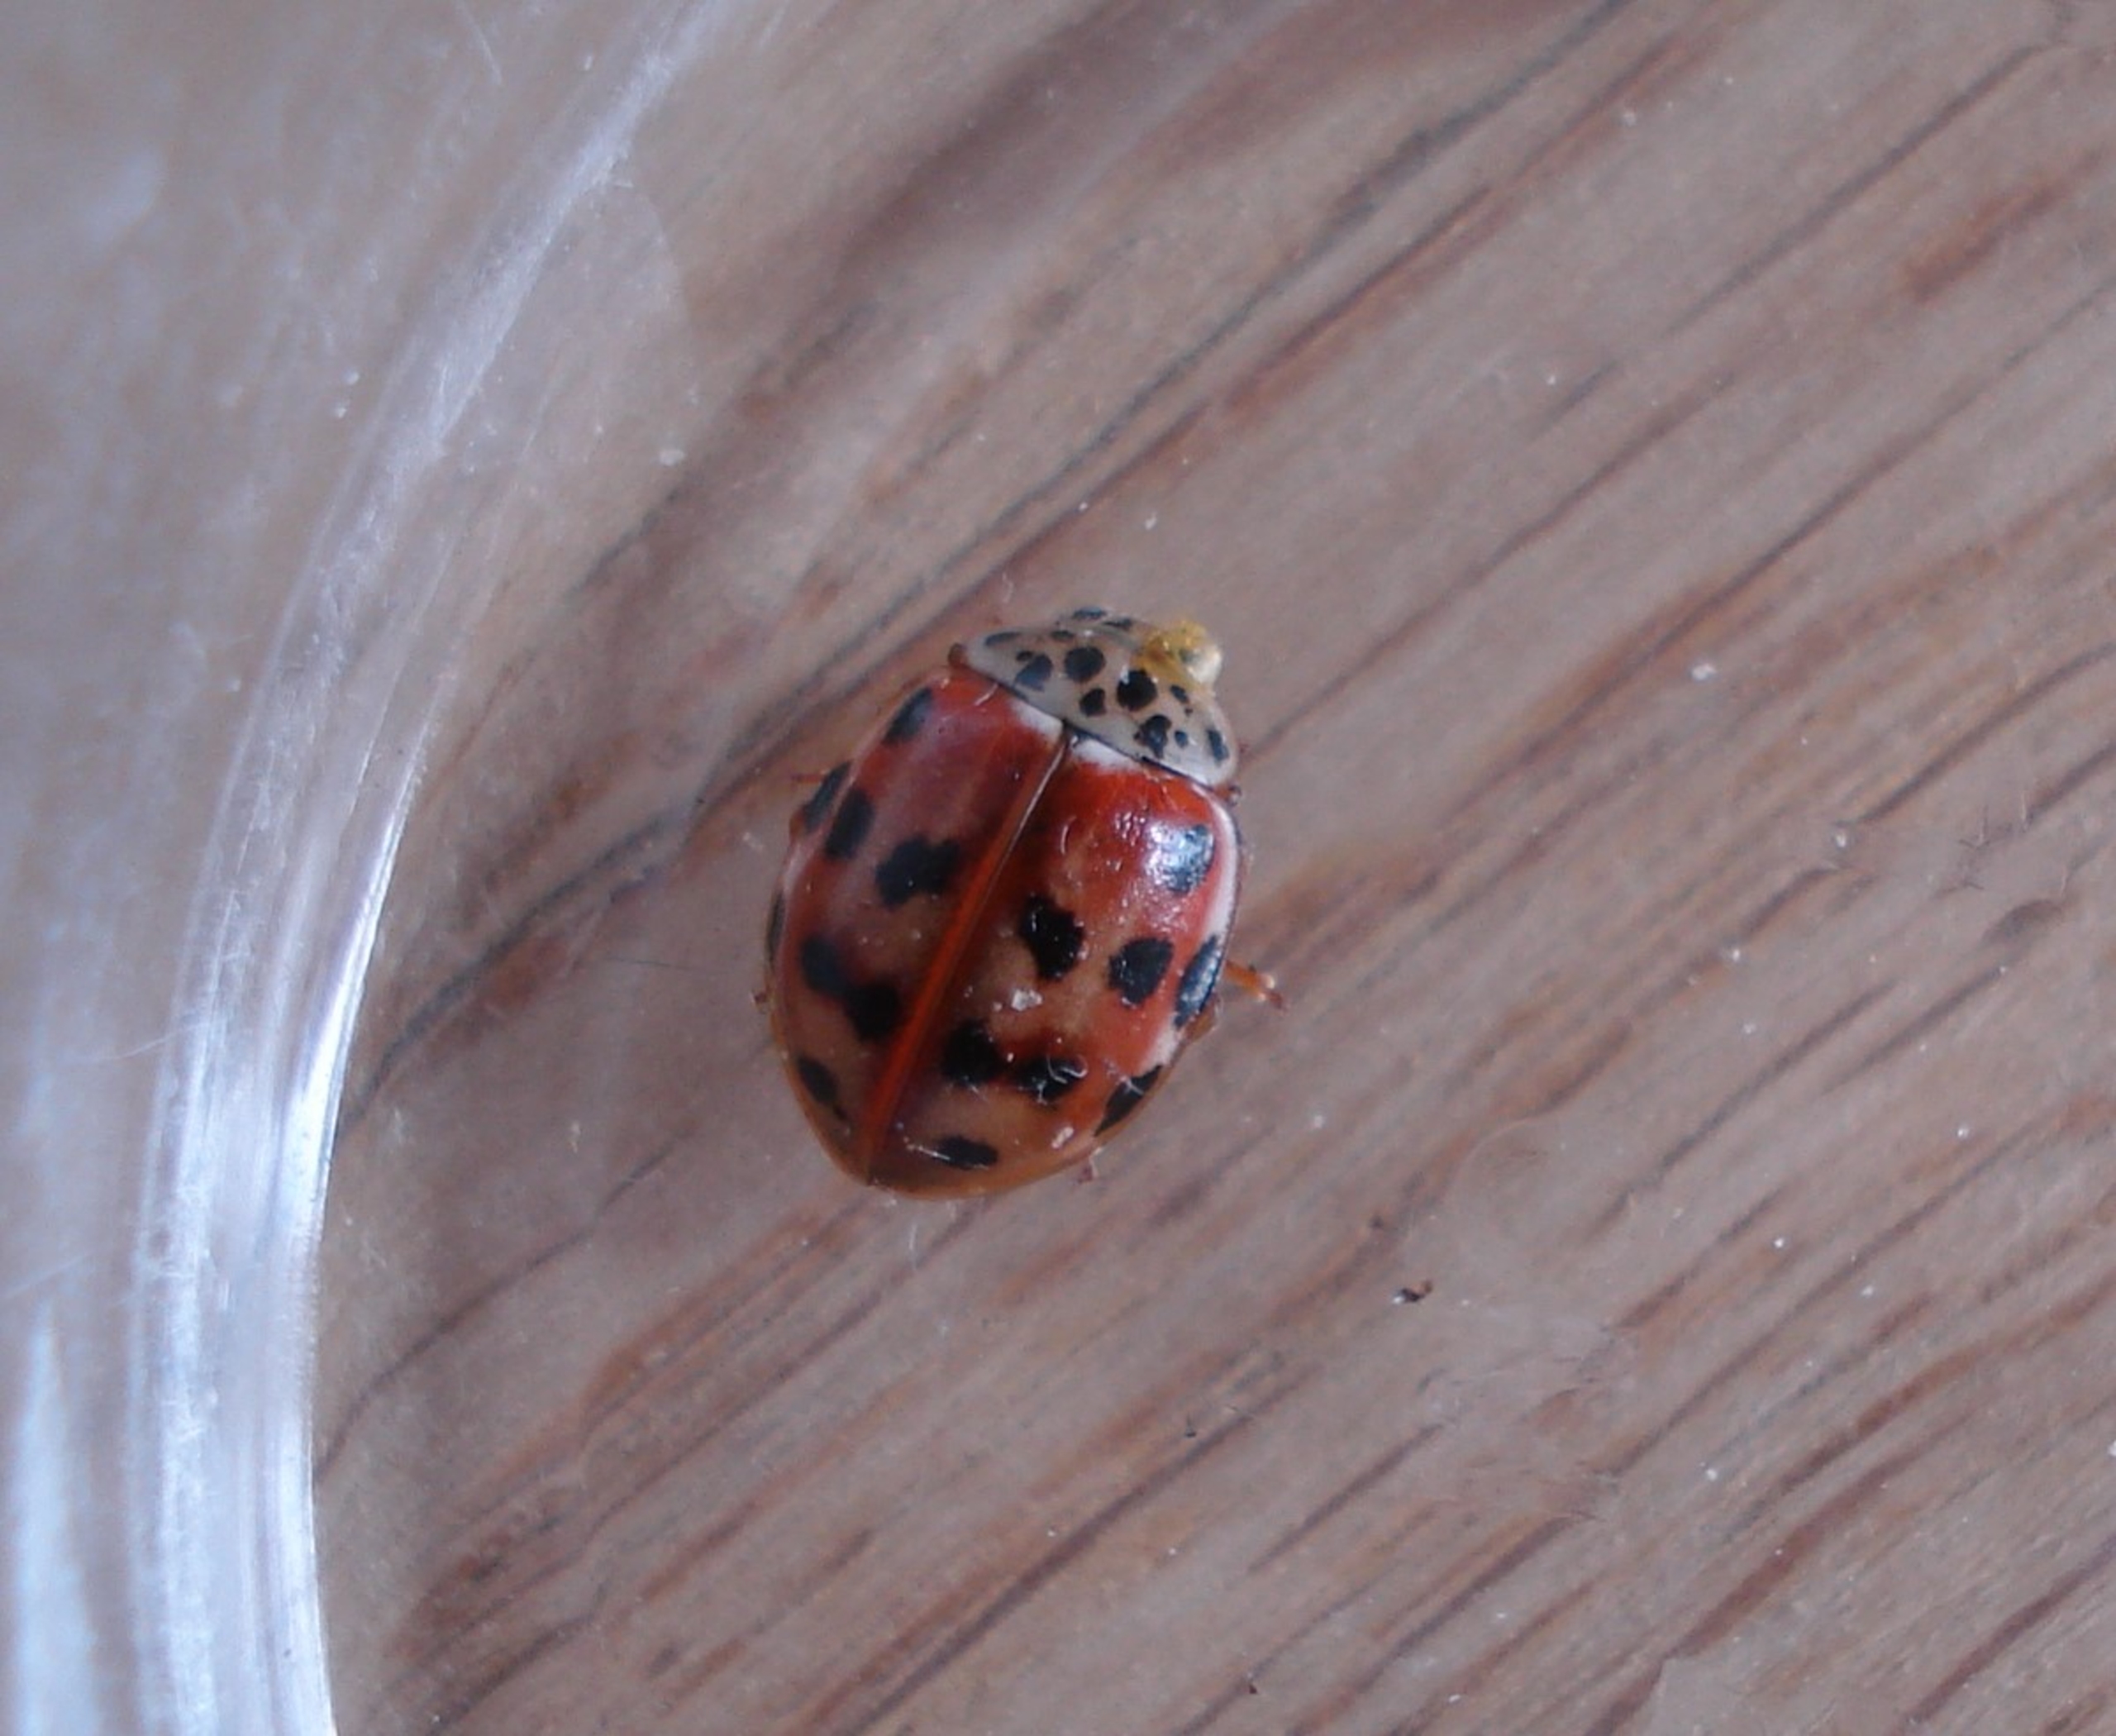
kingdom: Animalia
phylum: Arthropoda
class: Insecta
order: Coleoptera
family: Coccinellidae
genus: Harmonia
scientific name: Harmonia quadripunctata
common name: Gulrød mariehøne
